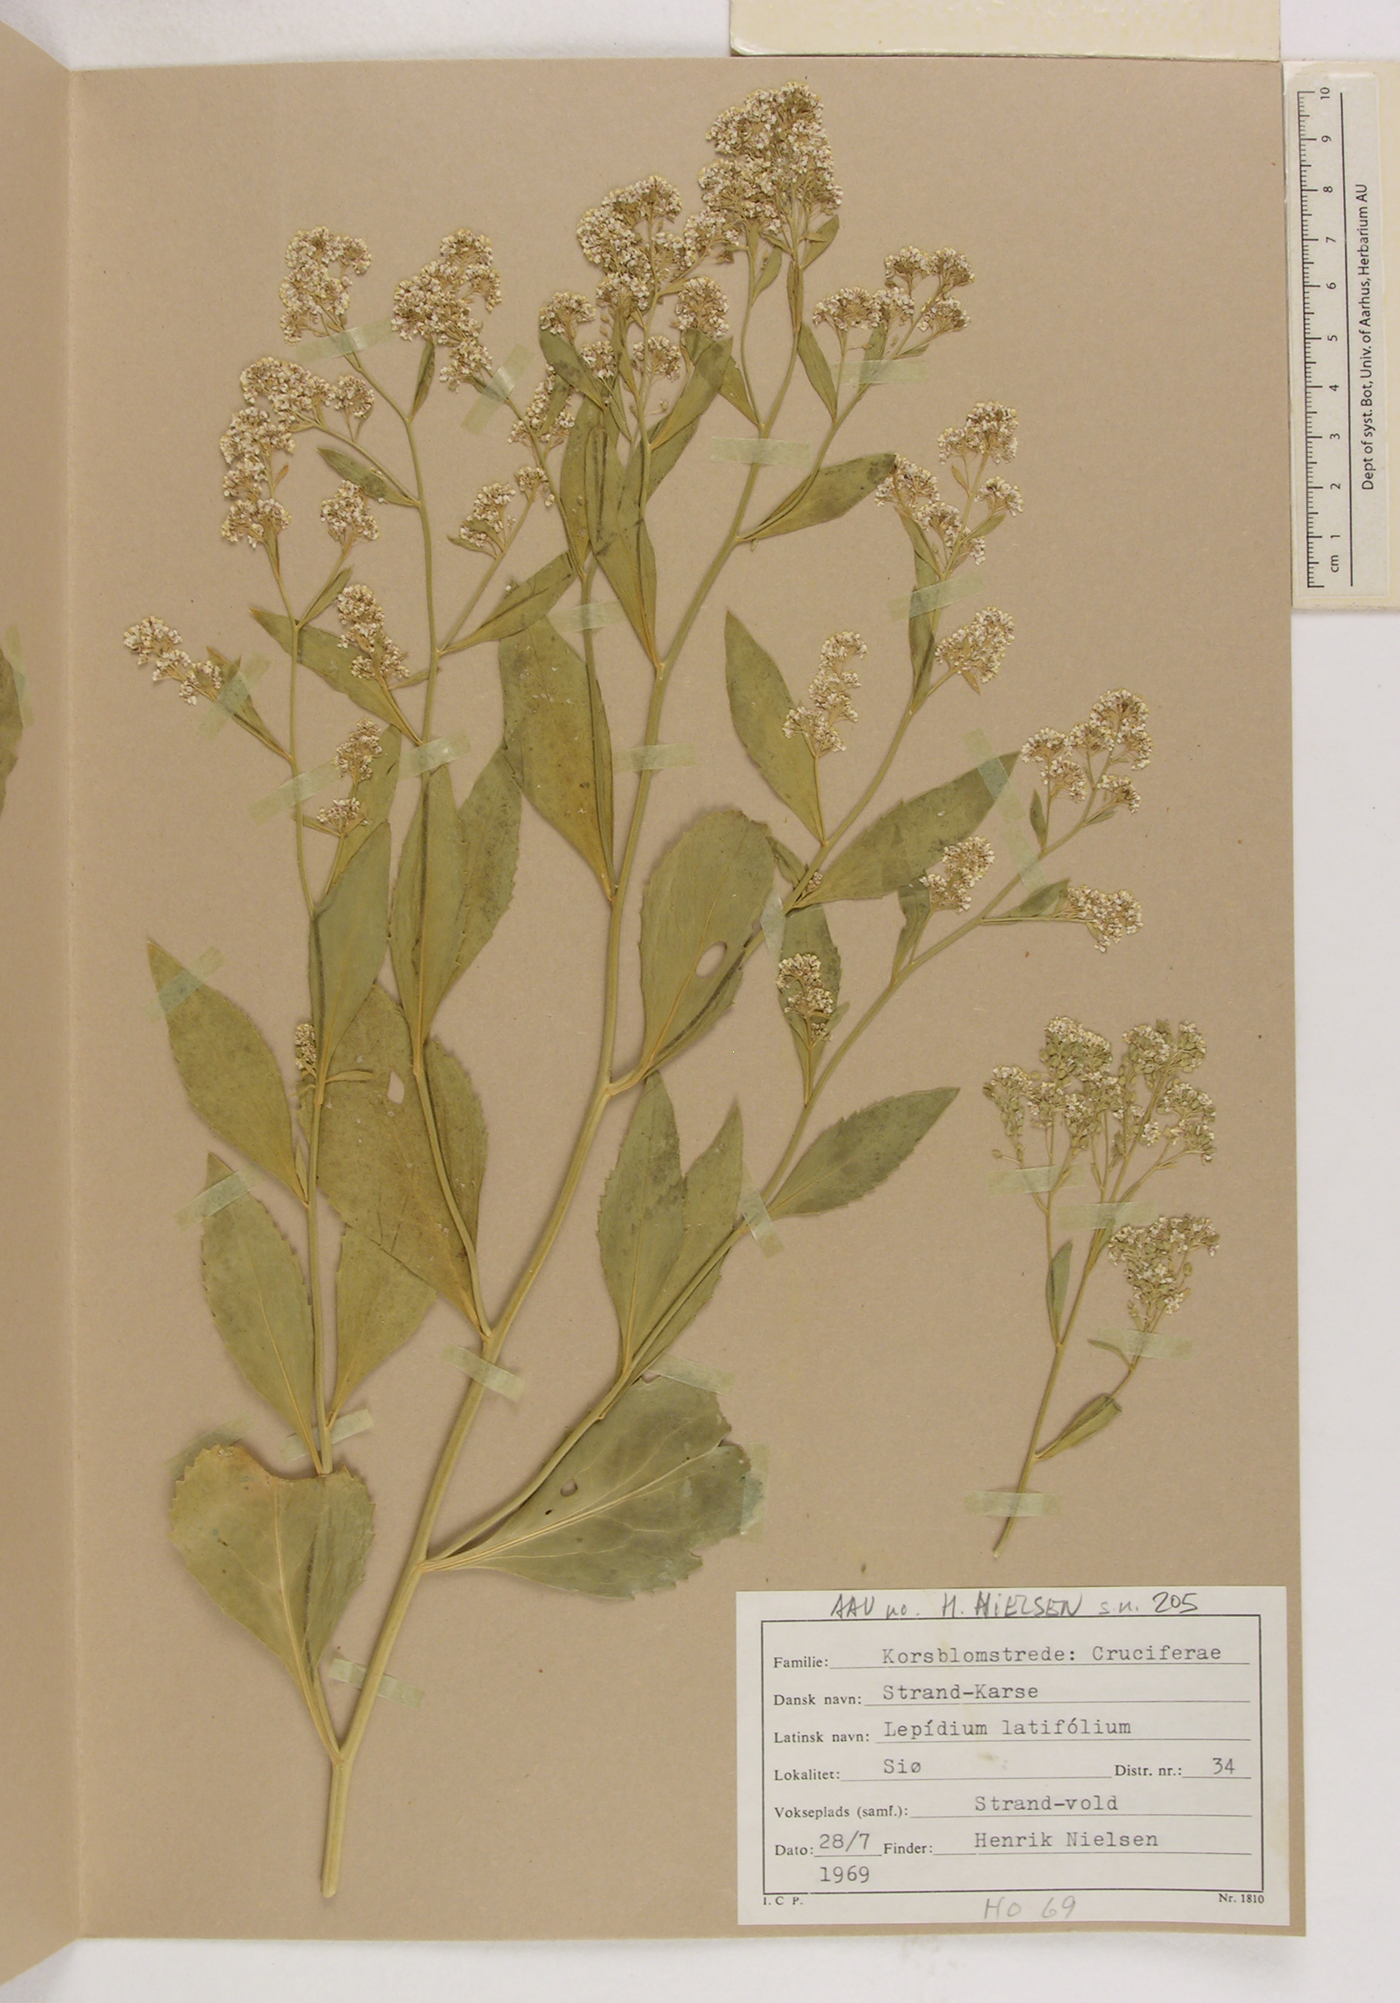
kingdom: Plantae
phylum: Tracheophyta
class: Magnoliopsida
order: Brassicales
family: Brassicaceae
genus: Lepidium
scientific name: Lepidium latifolium
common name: Dittander
